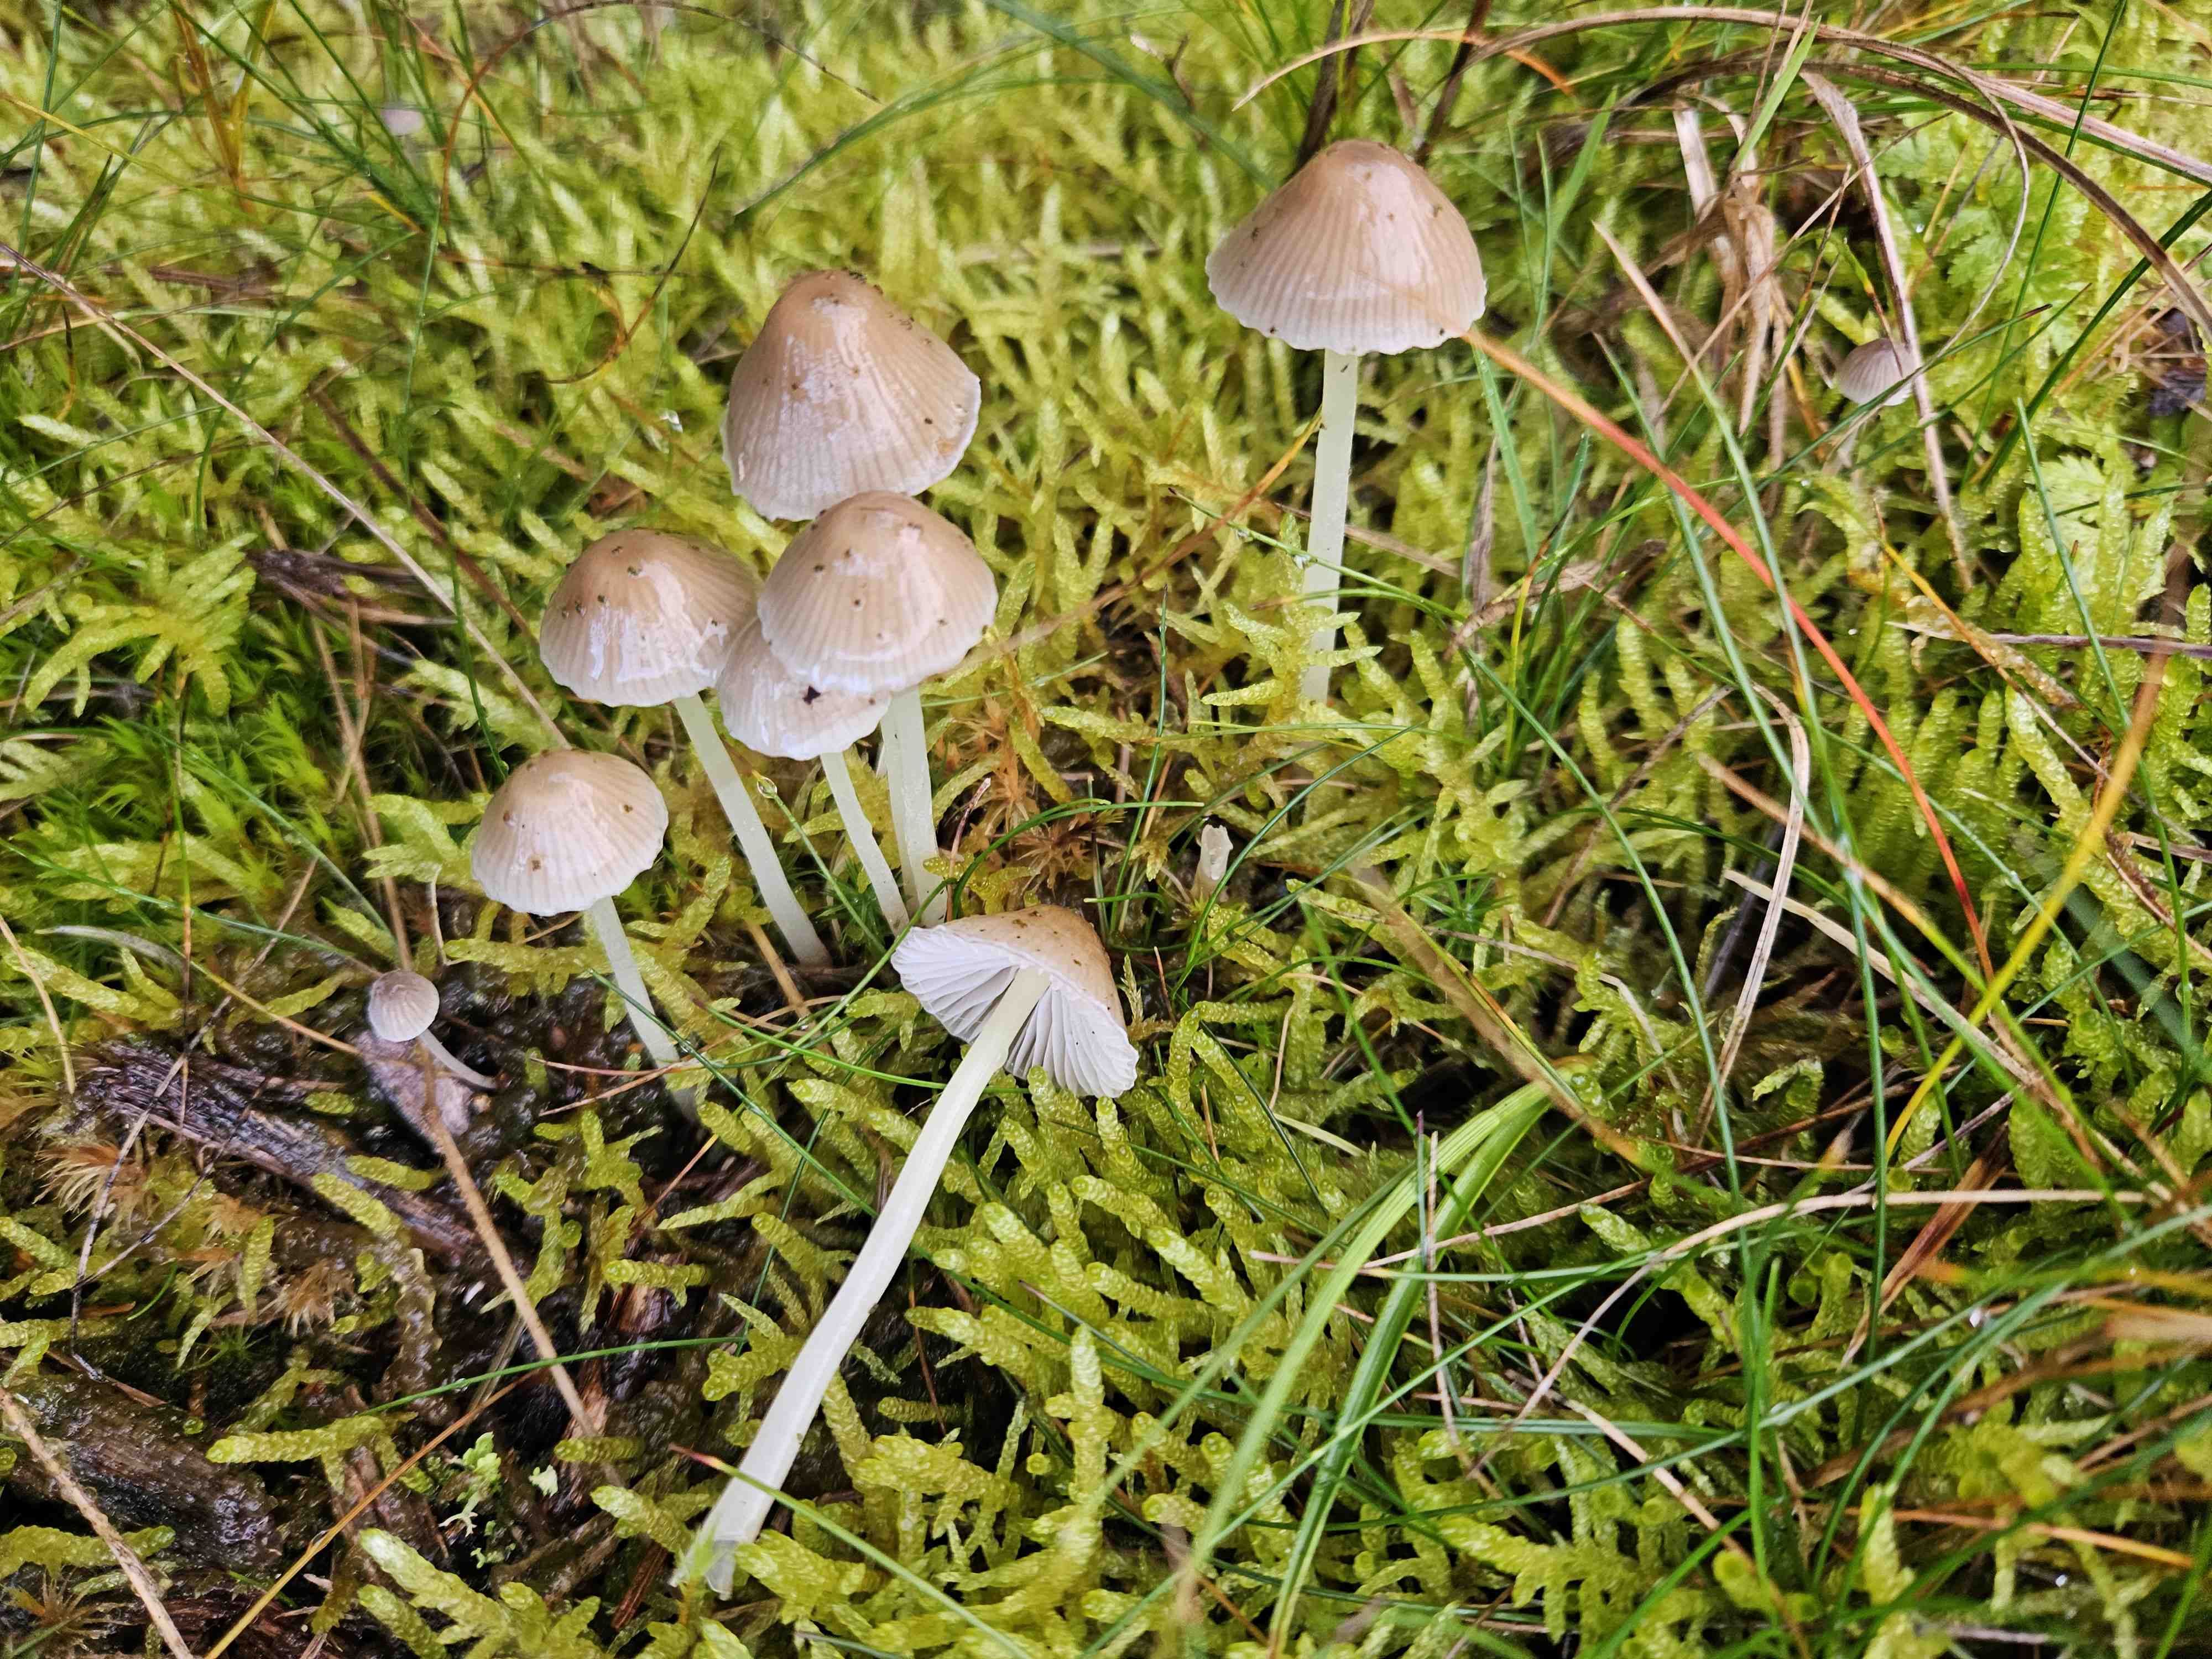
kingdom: Fungi
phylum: Basidiomycota
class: Agaricomycetes
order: Agaricales
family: Mycenaceae
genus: Mycena
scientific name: Mycena epipterygia
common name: gulstokket huesvamp
